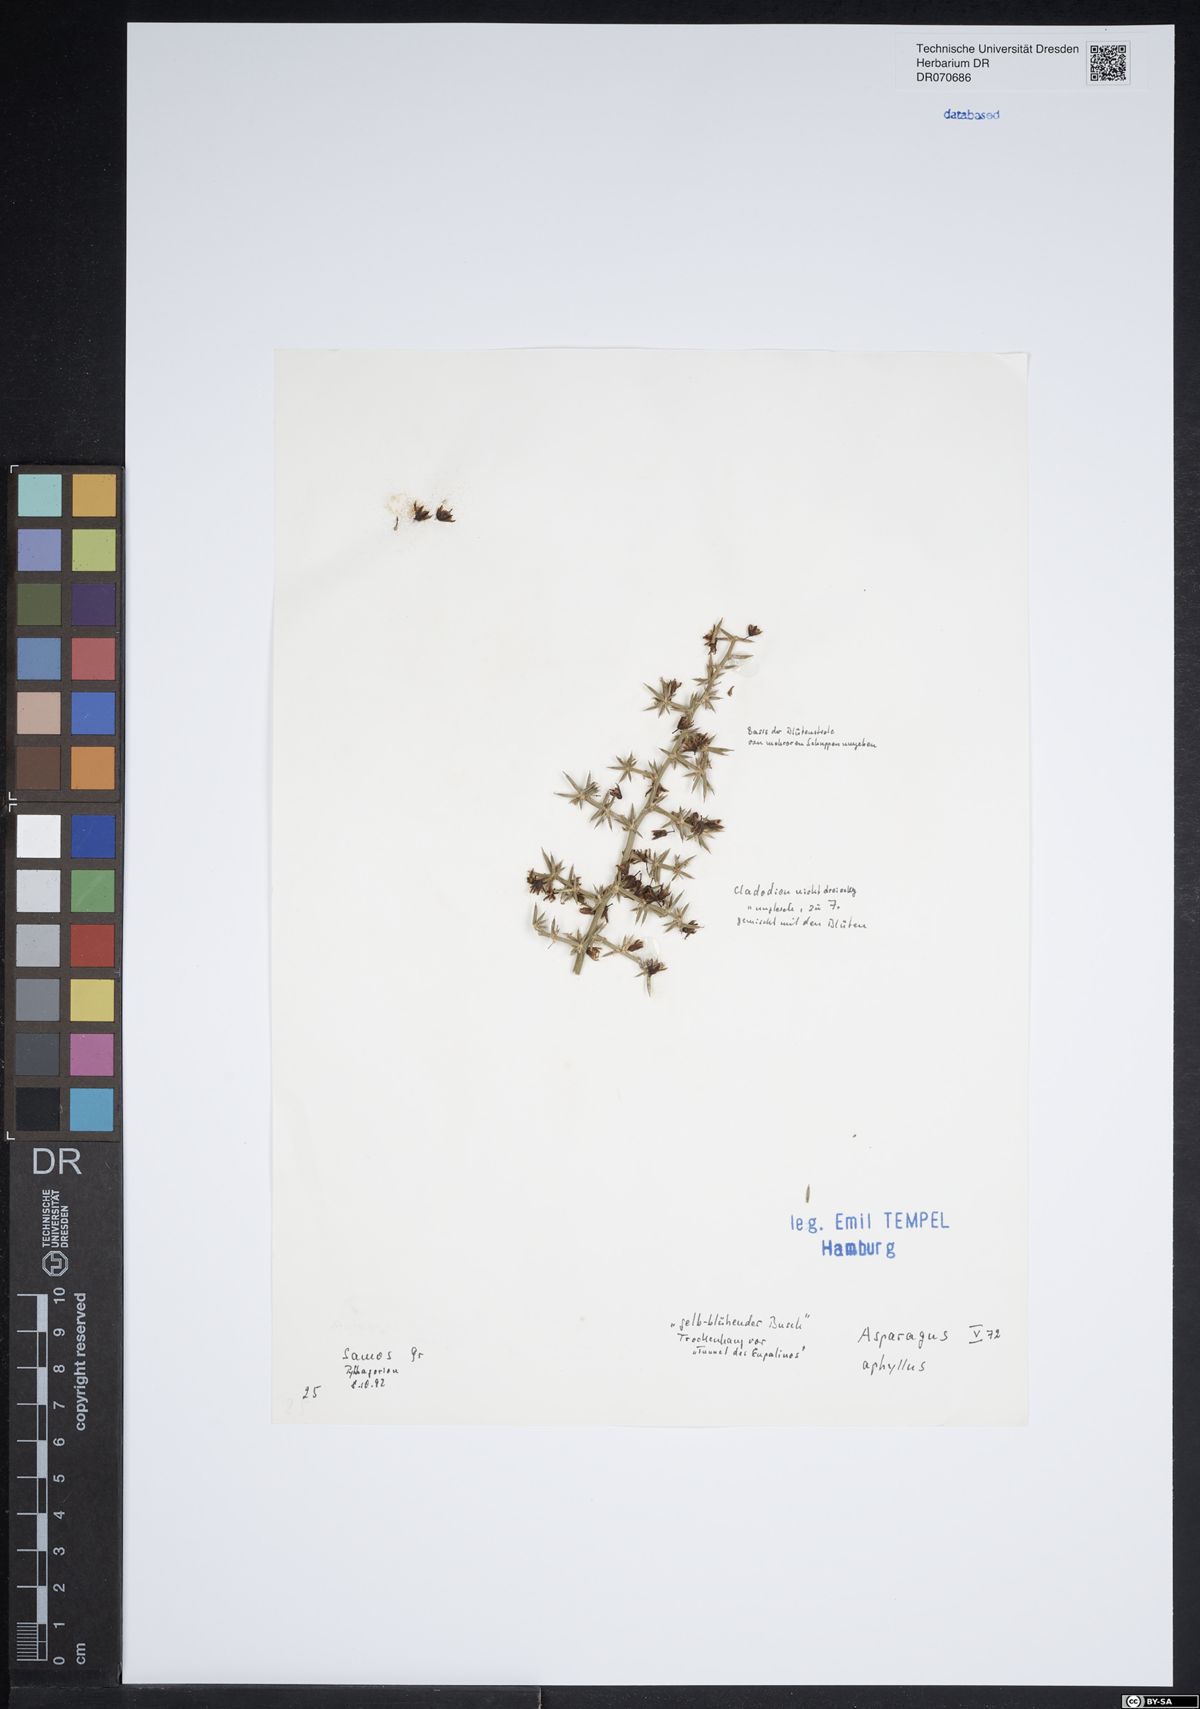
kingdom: Plantae
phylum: Tracheophyta
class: Liliopsida
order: Asparagales
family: Asparagaceae
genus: Asparagus
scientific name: Asparagus aphyllus
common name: Mediterranean asparagus
